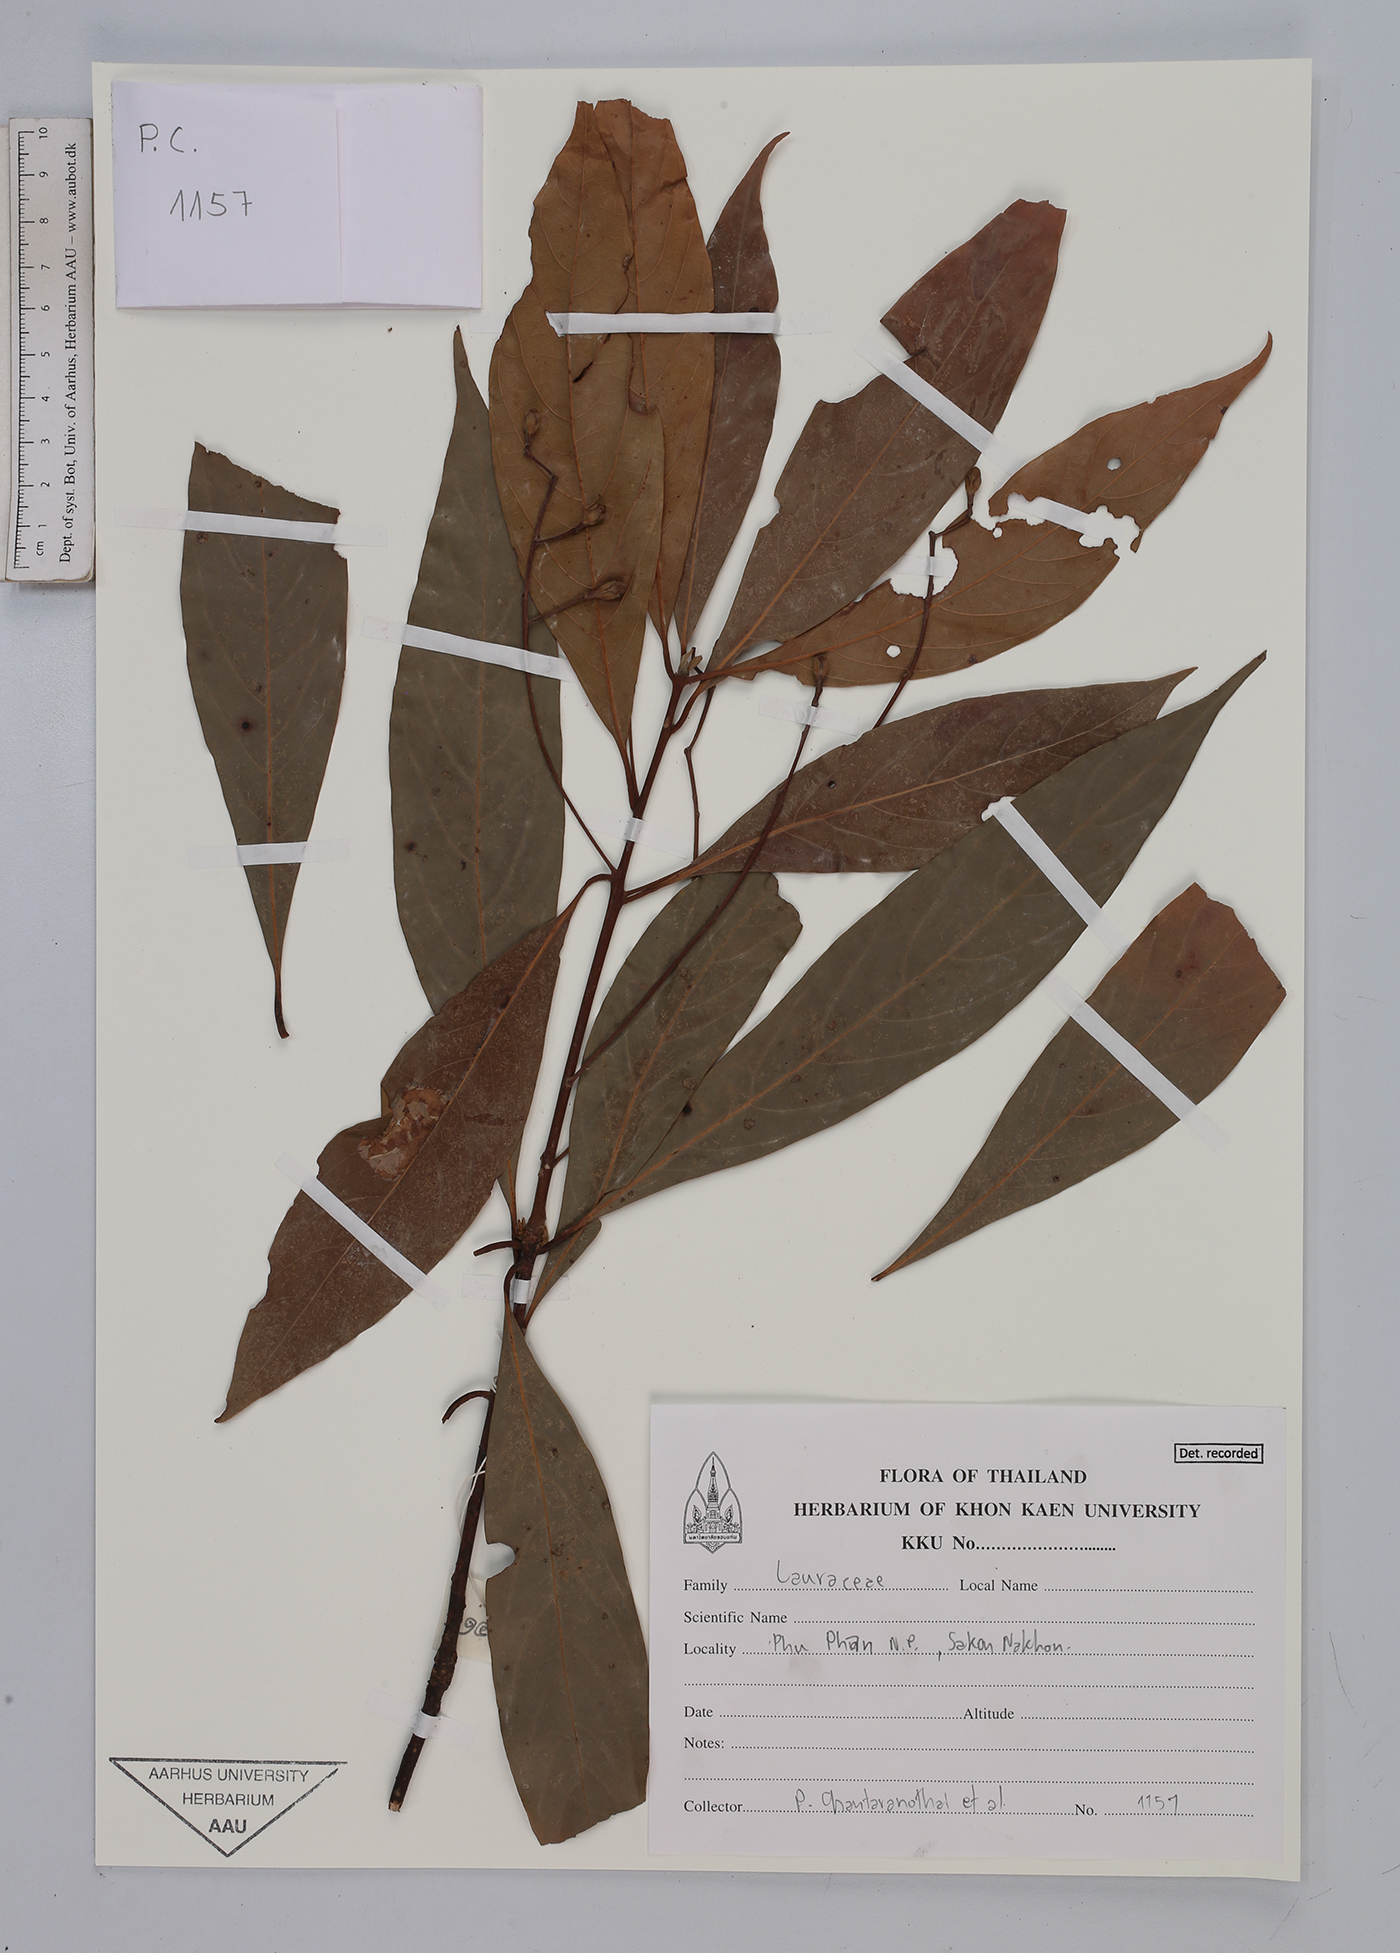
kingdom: Plantae
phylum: Tracheophyta
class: Magnoliopsida
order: Laurales
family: Lauraceae
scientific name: Lauraceae
